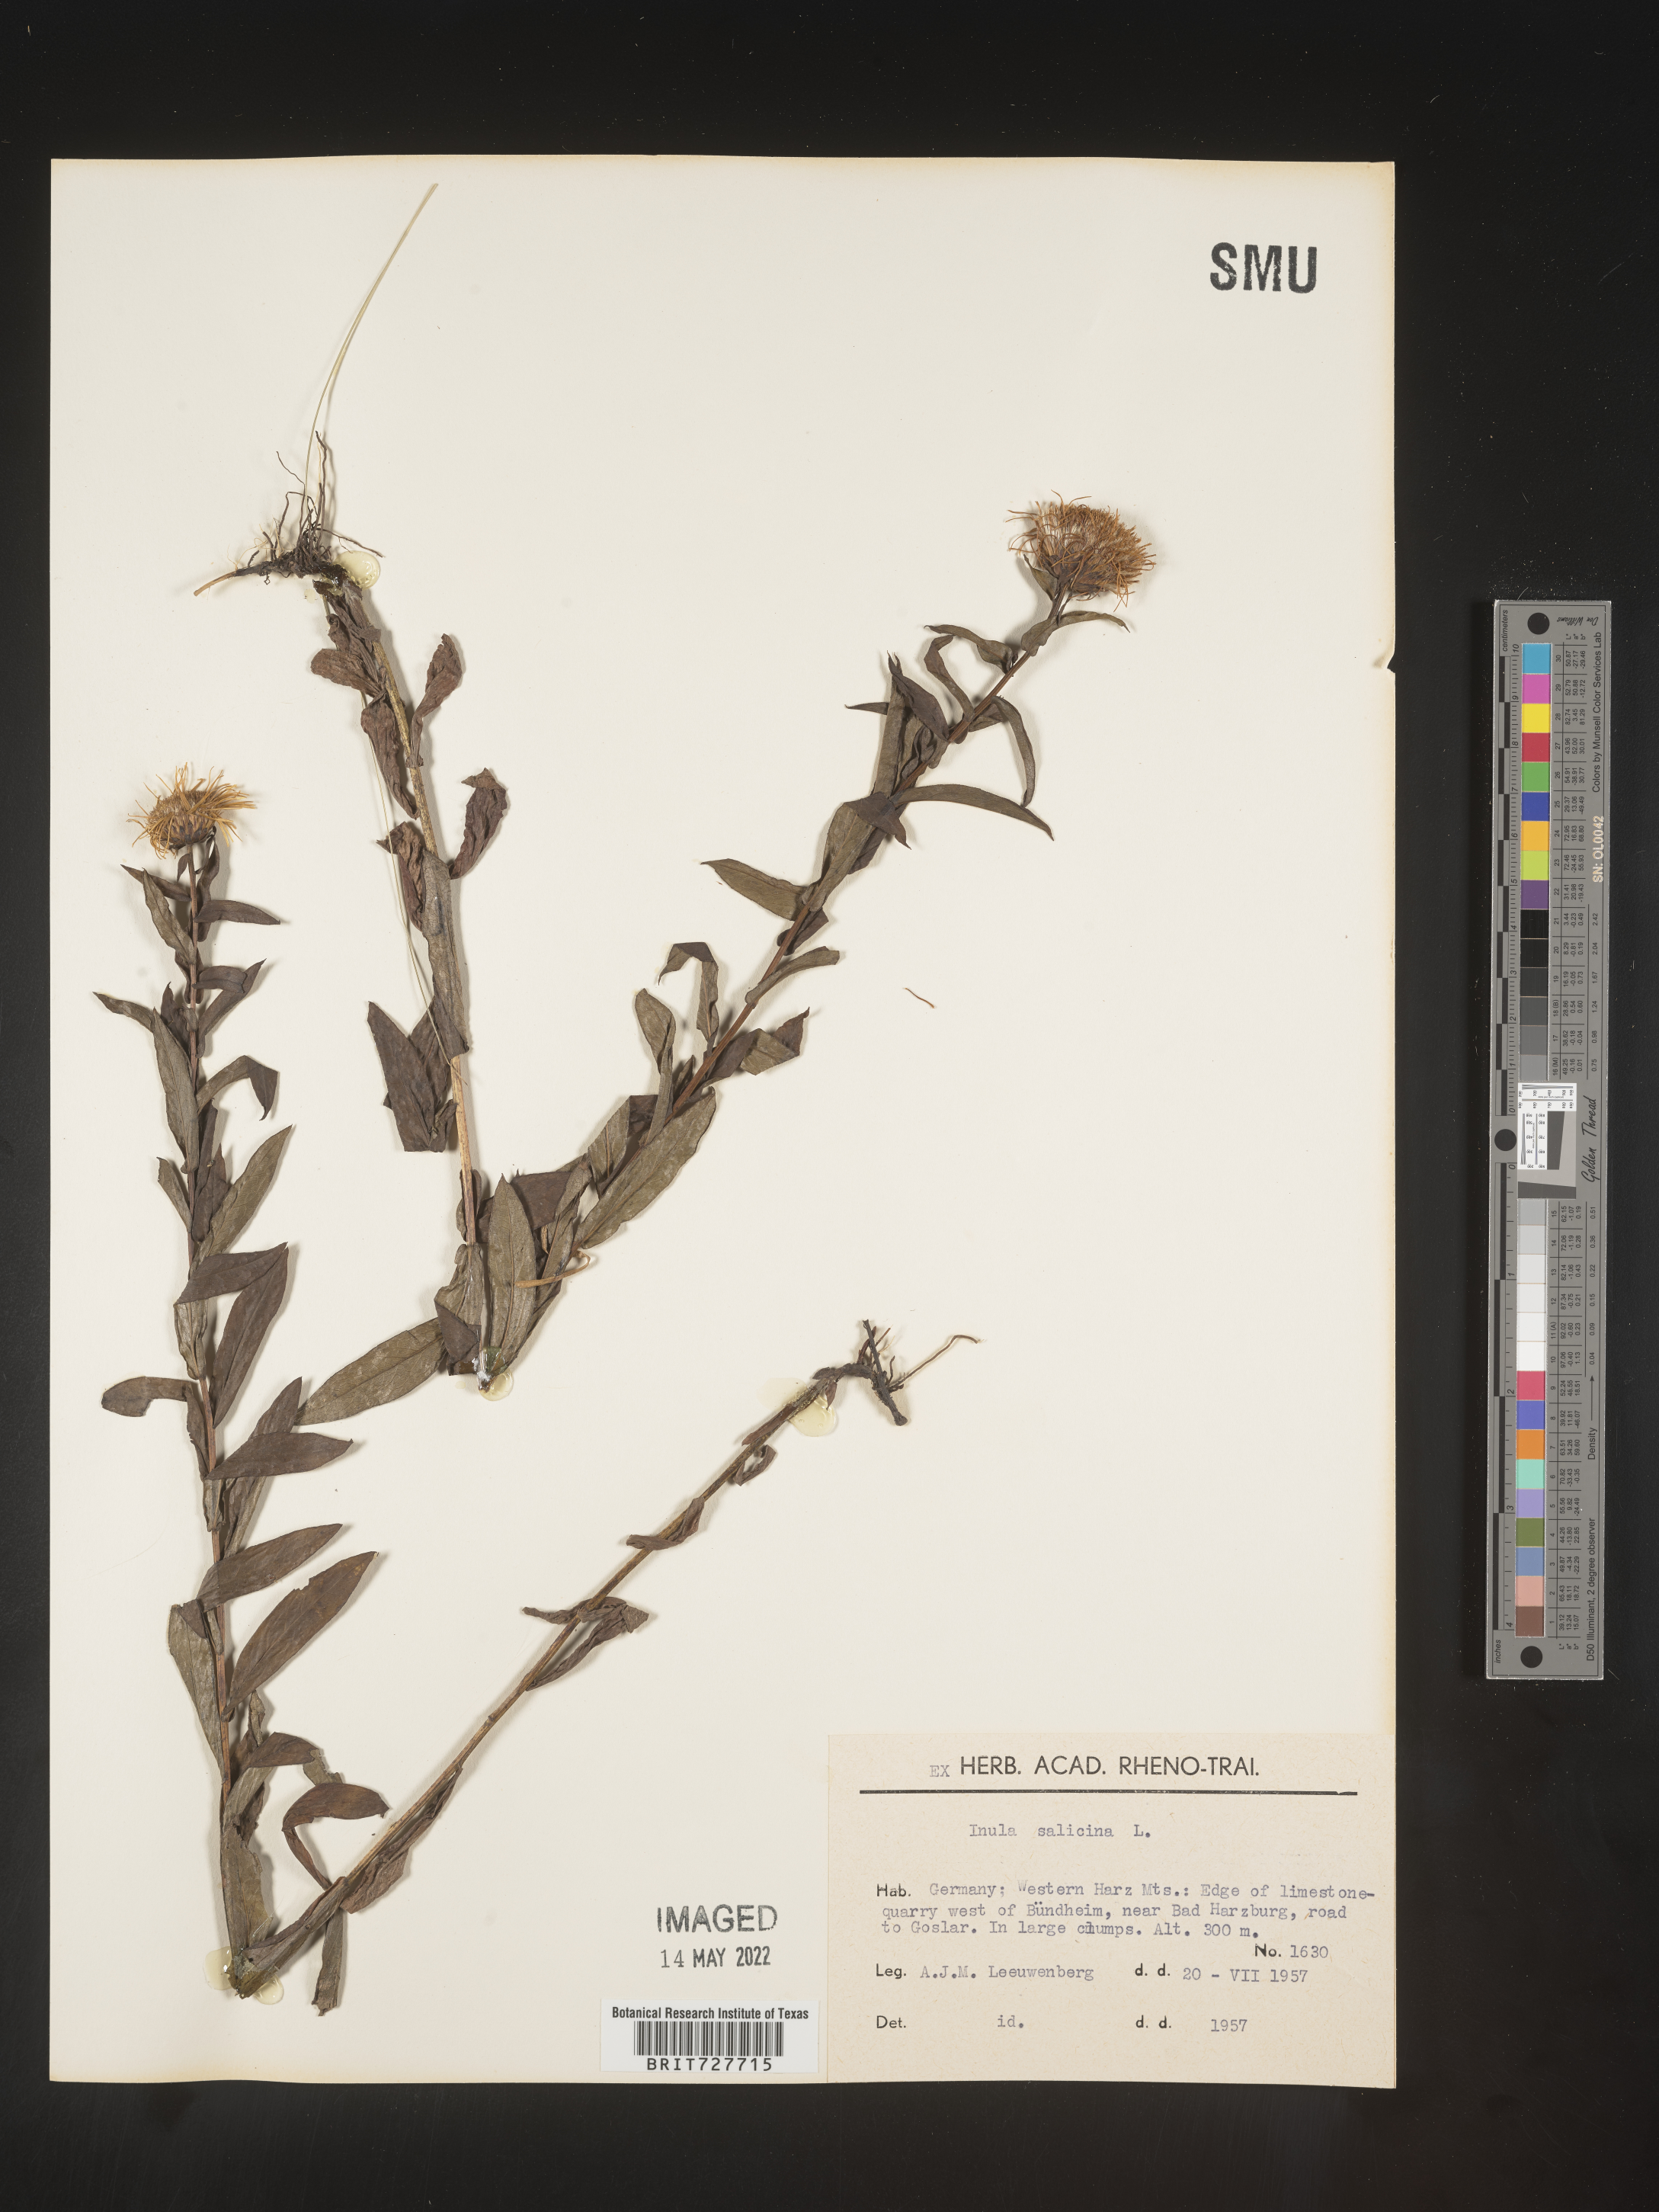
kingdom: Plantae
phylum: Tracheophyta
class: Magnoliopsida
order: Asterales
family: Asteraceae
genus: Inula
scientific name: Inula
